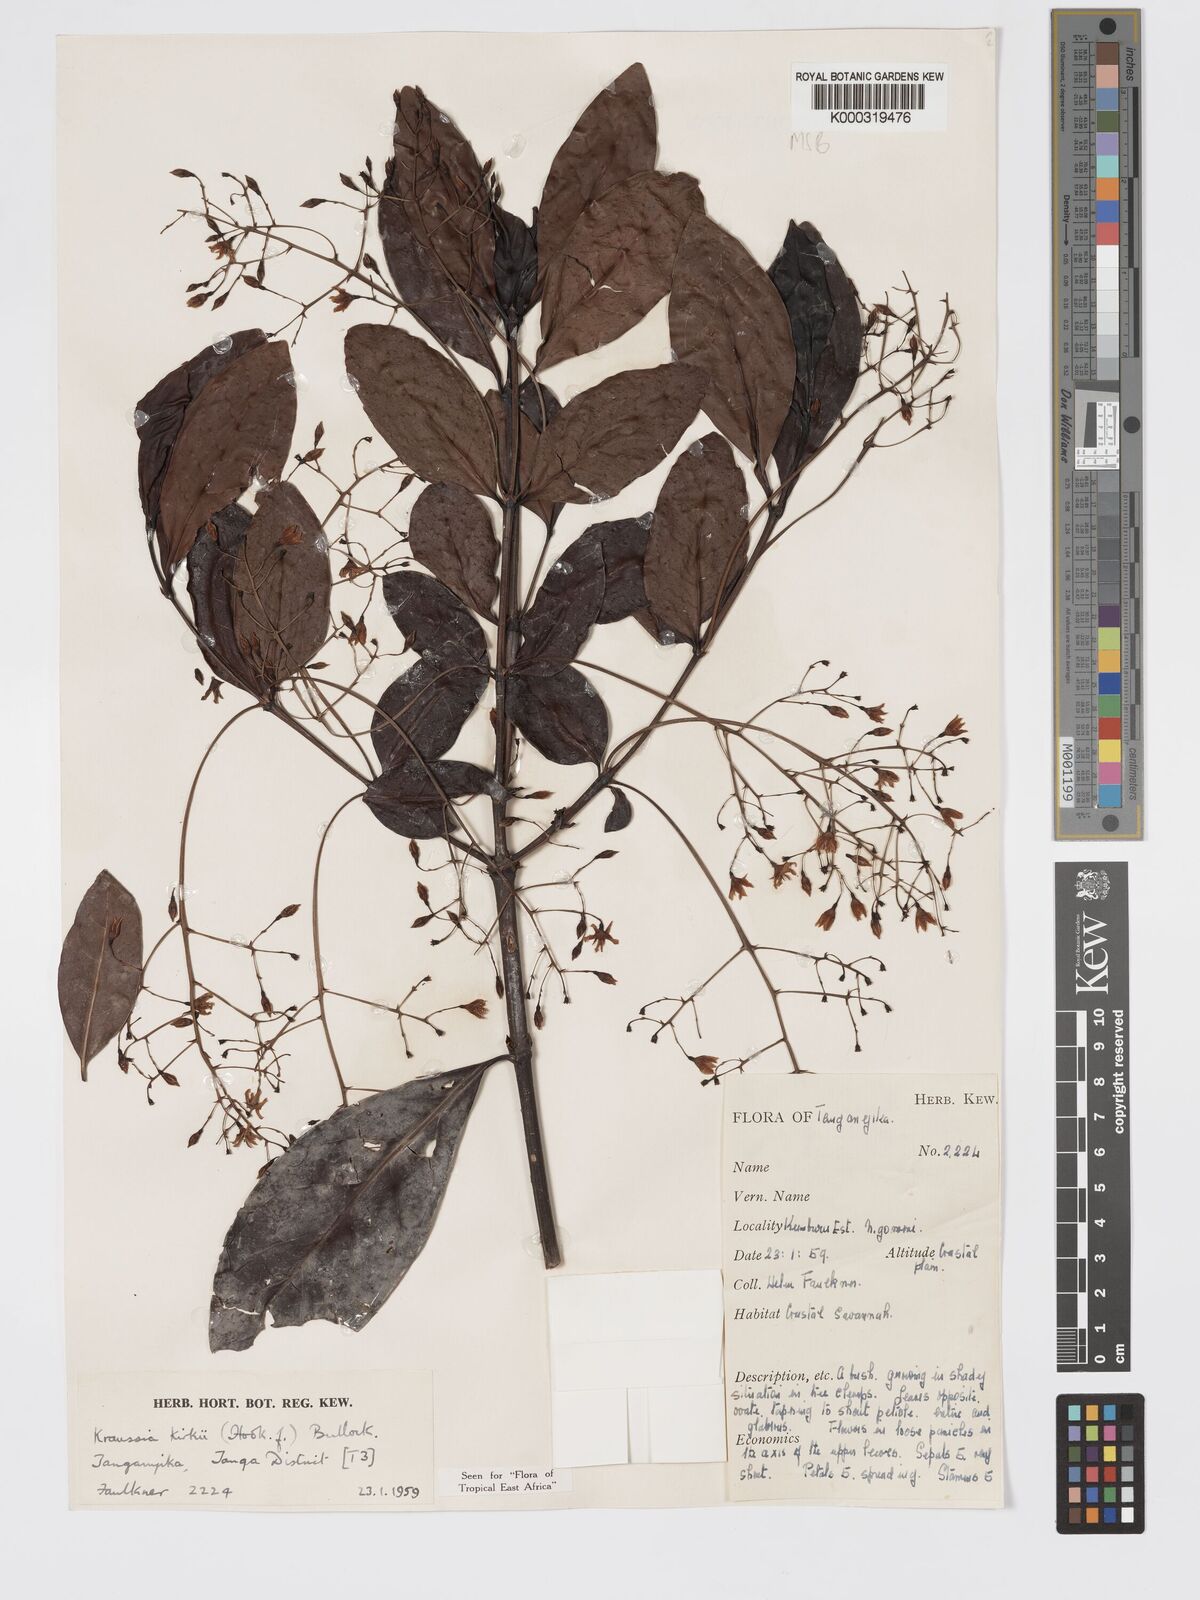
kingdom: Plantae
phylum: Tracheophyta
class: Magnoliopsida
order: Gentianales
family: Rubiaceae
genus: Kraussia
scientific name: Kraussia kirkii
